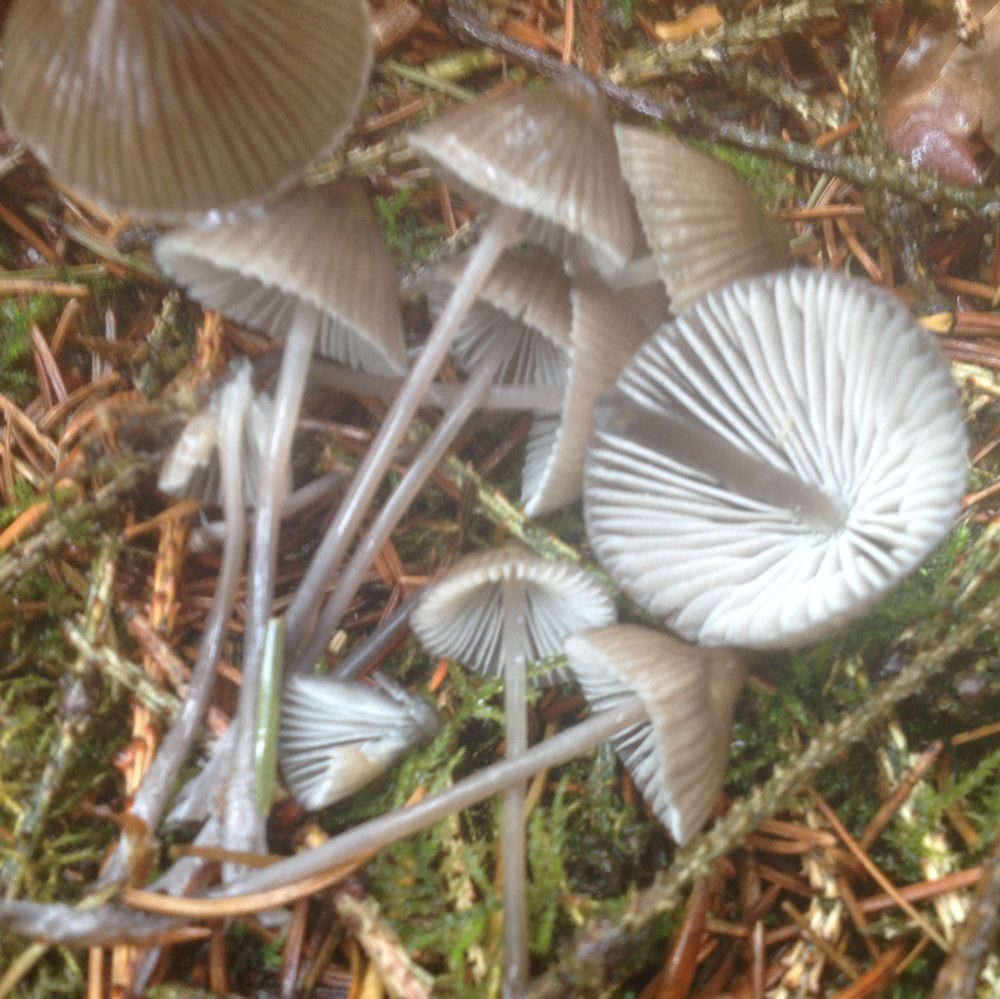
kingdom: Fungi
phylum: Basidiomycota
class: Agaricomycetes
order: Agaricales
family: Mycenaceae
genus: Mycena
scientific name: Mycena
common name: huesvamp
